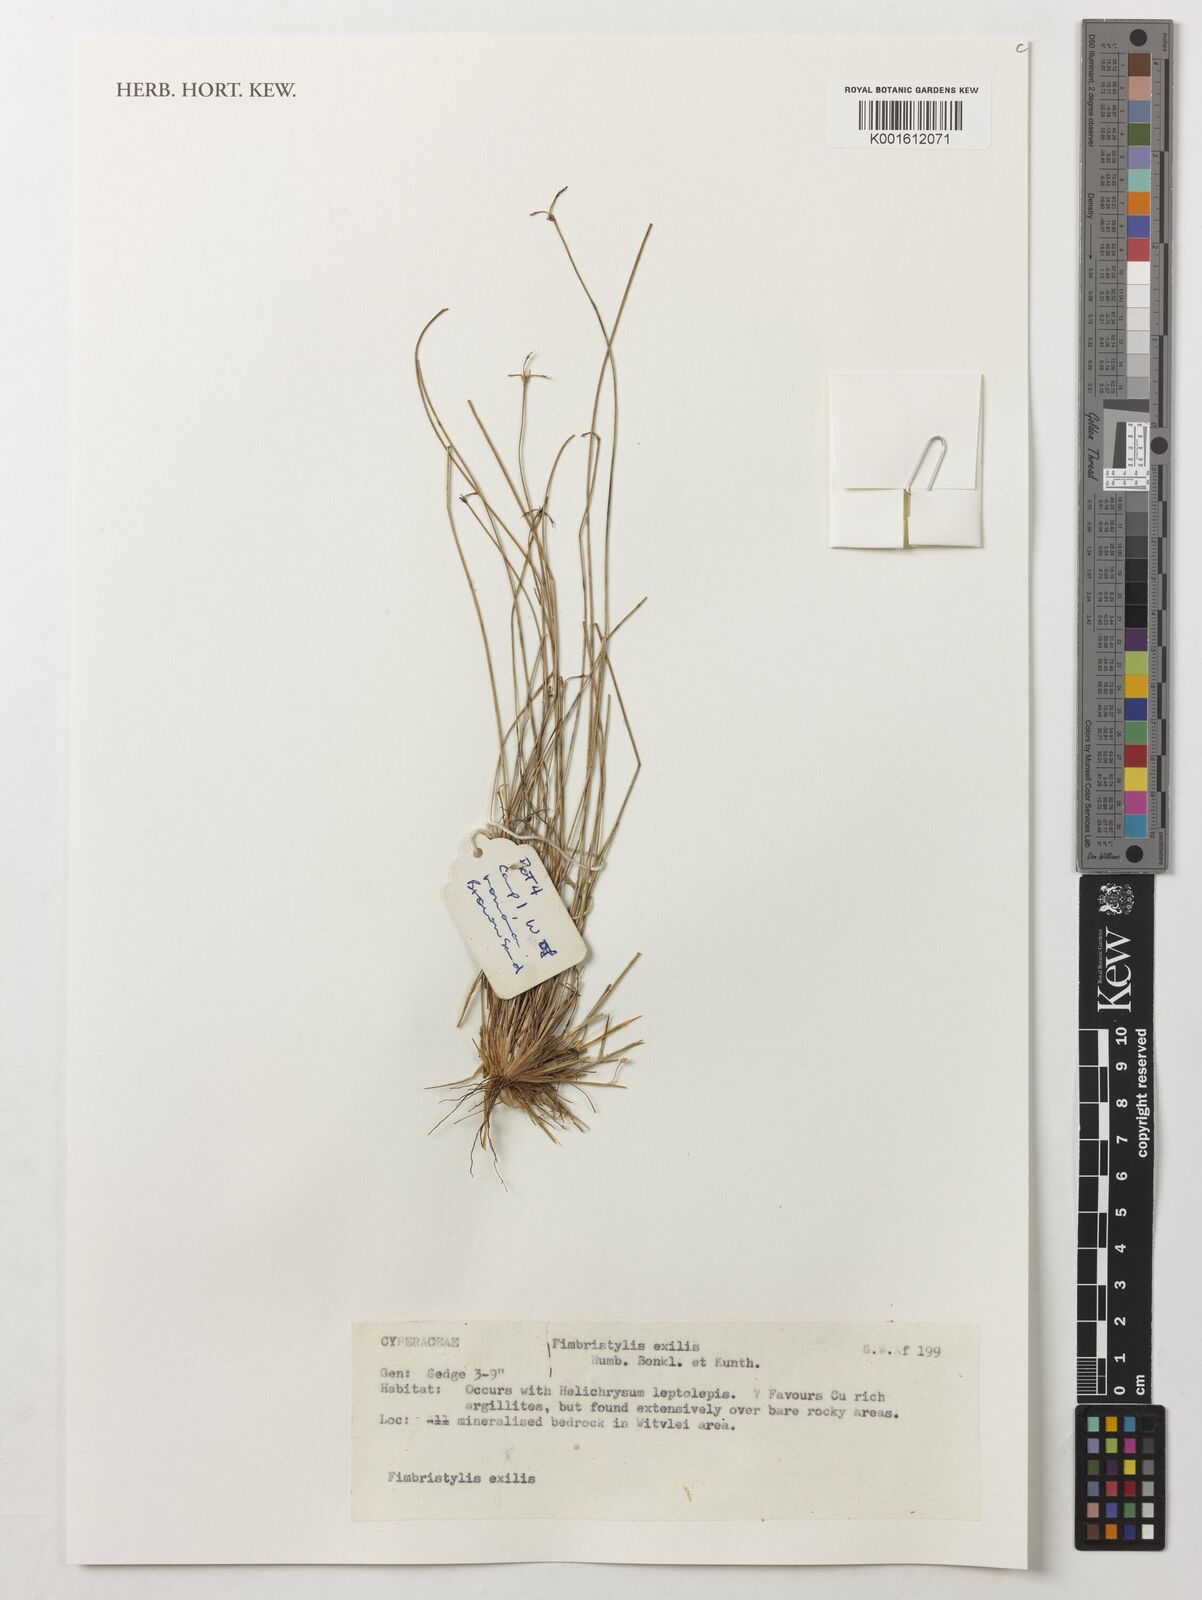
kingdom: Plantae
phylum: Tracheophyta
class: Liliopsida
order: Poales
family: Cyperaceae
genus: Bulbostylis
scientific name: Bulbostylis hispidula
